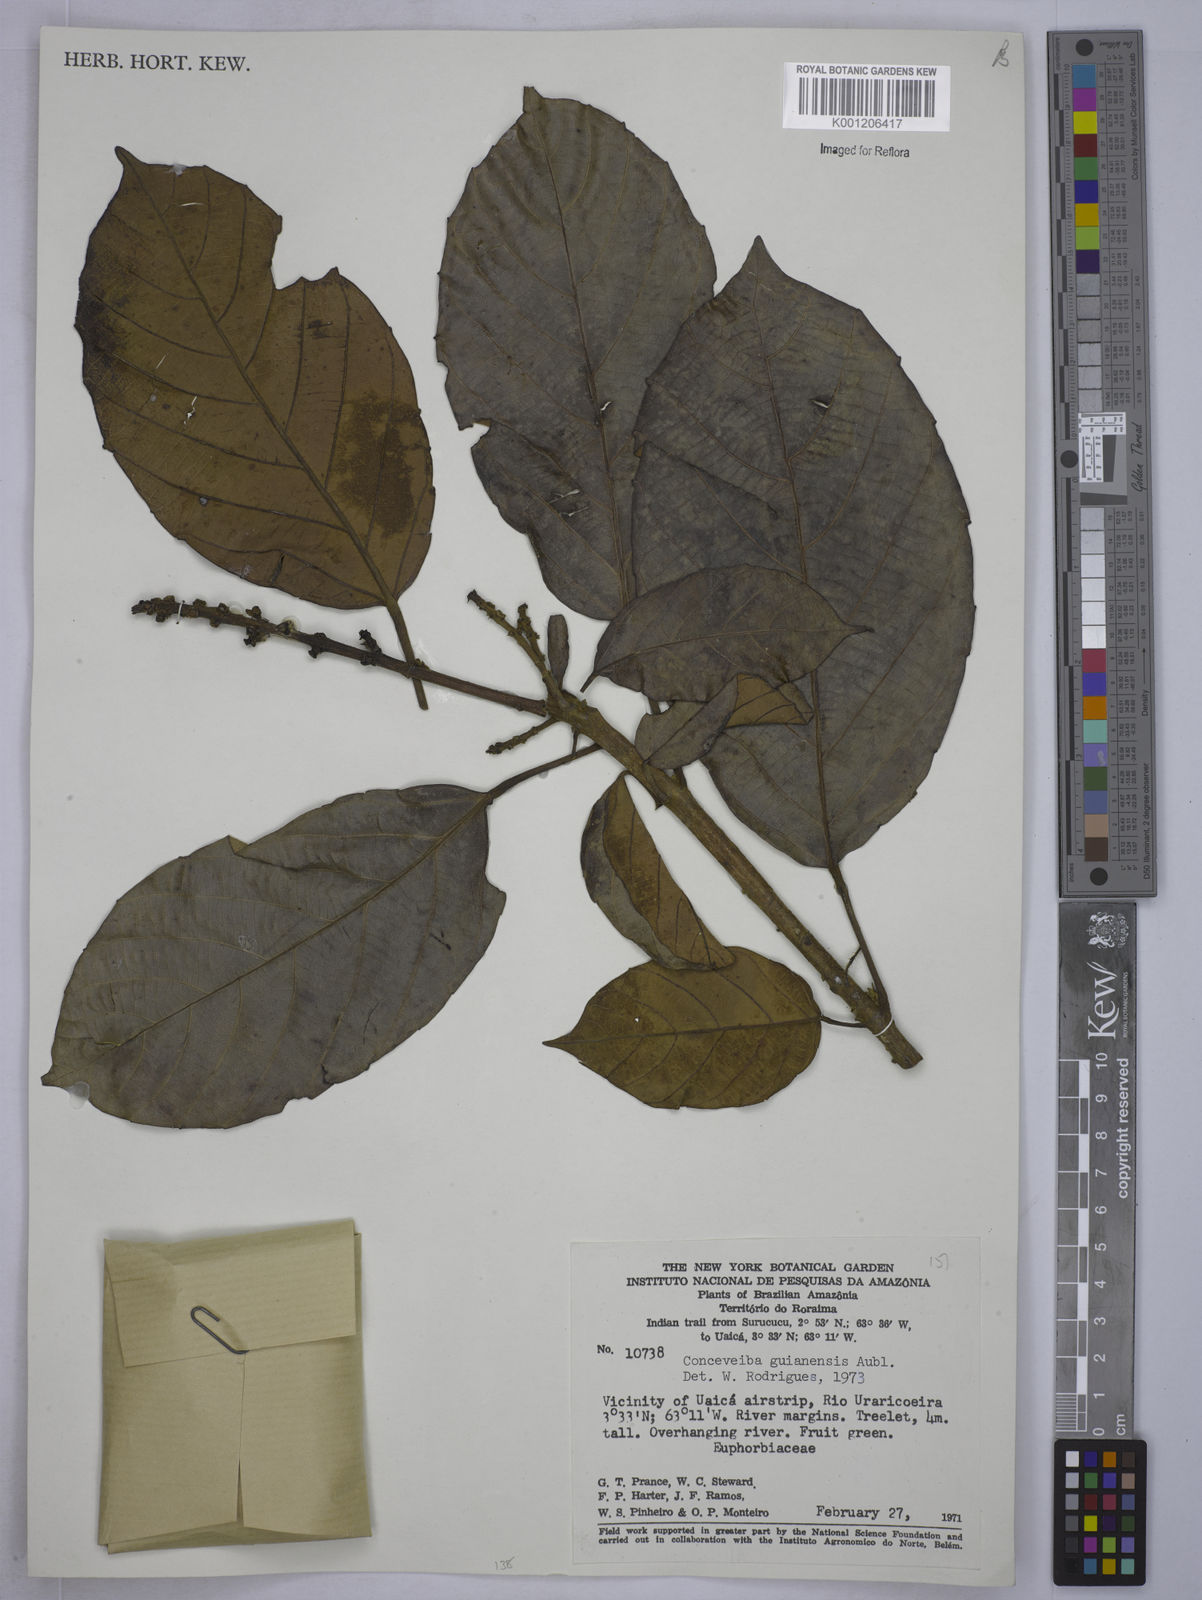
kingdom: Plantae
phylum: Tracheophyta
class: Magnoliopsida
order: Malpighiales
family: Euphorbiaceae
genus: Conceveiba
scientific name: Conceveiba guianensis
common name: Poatoru
